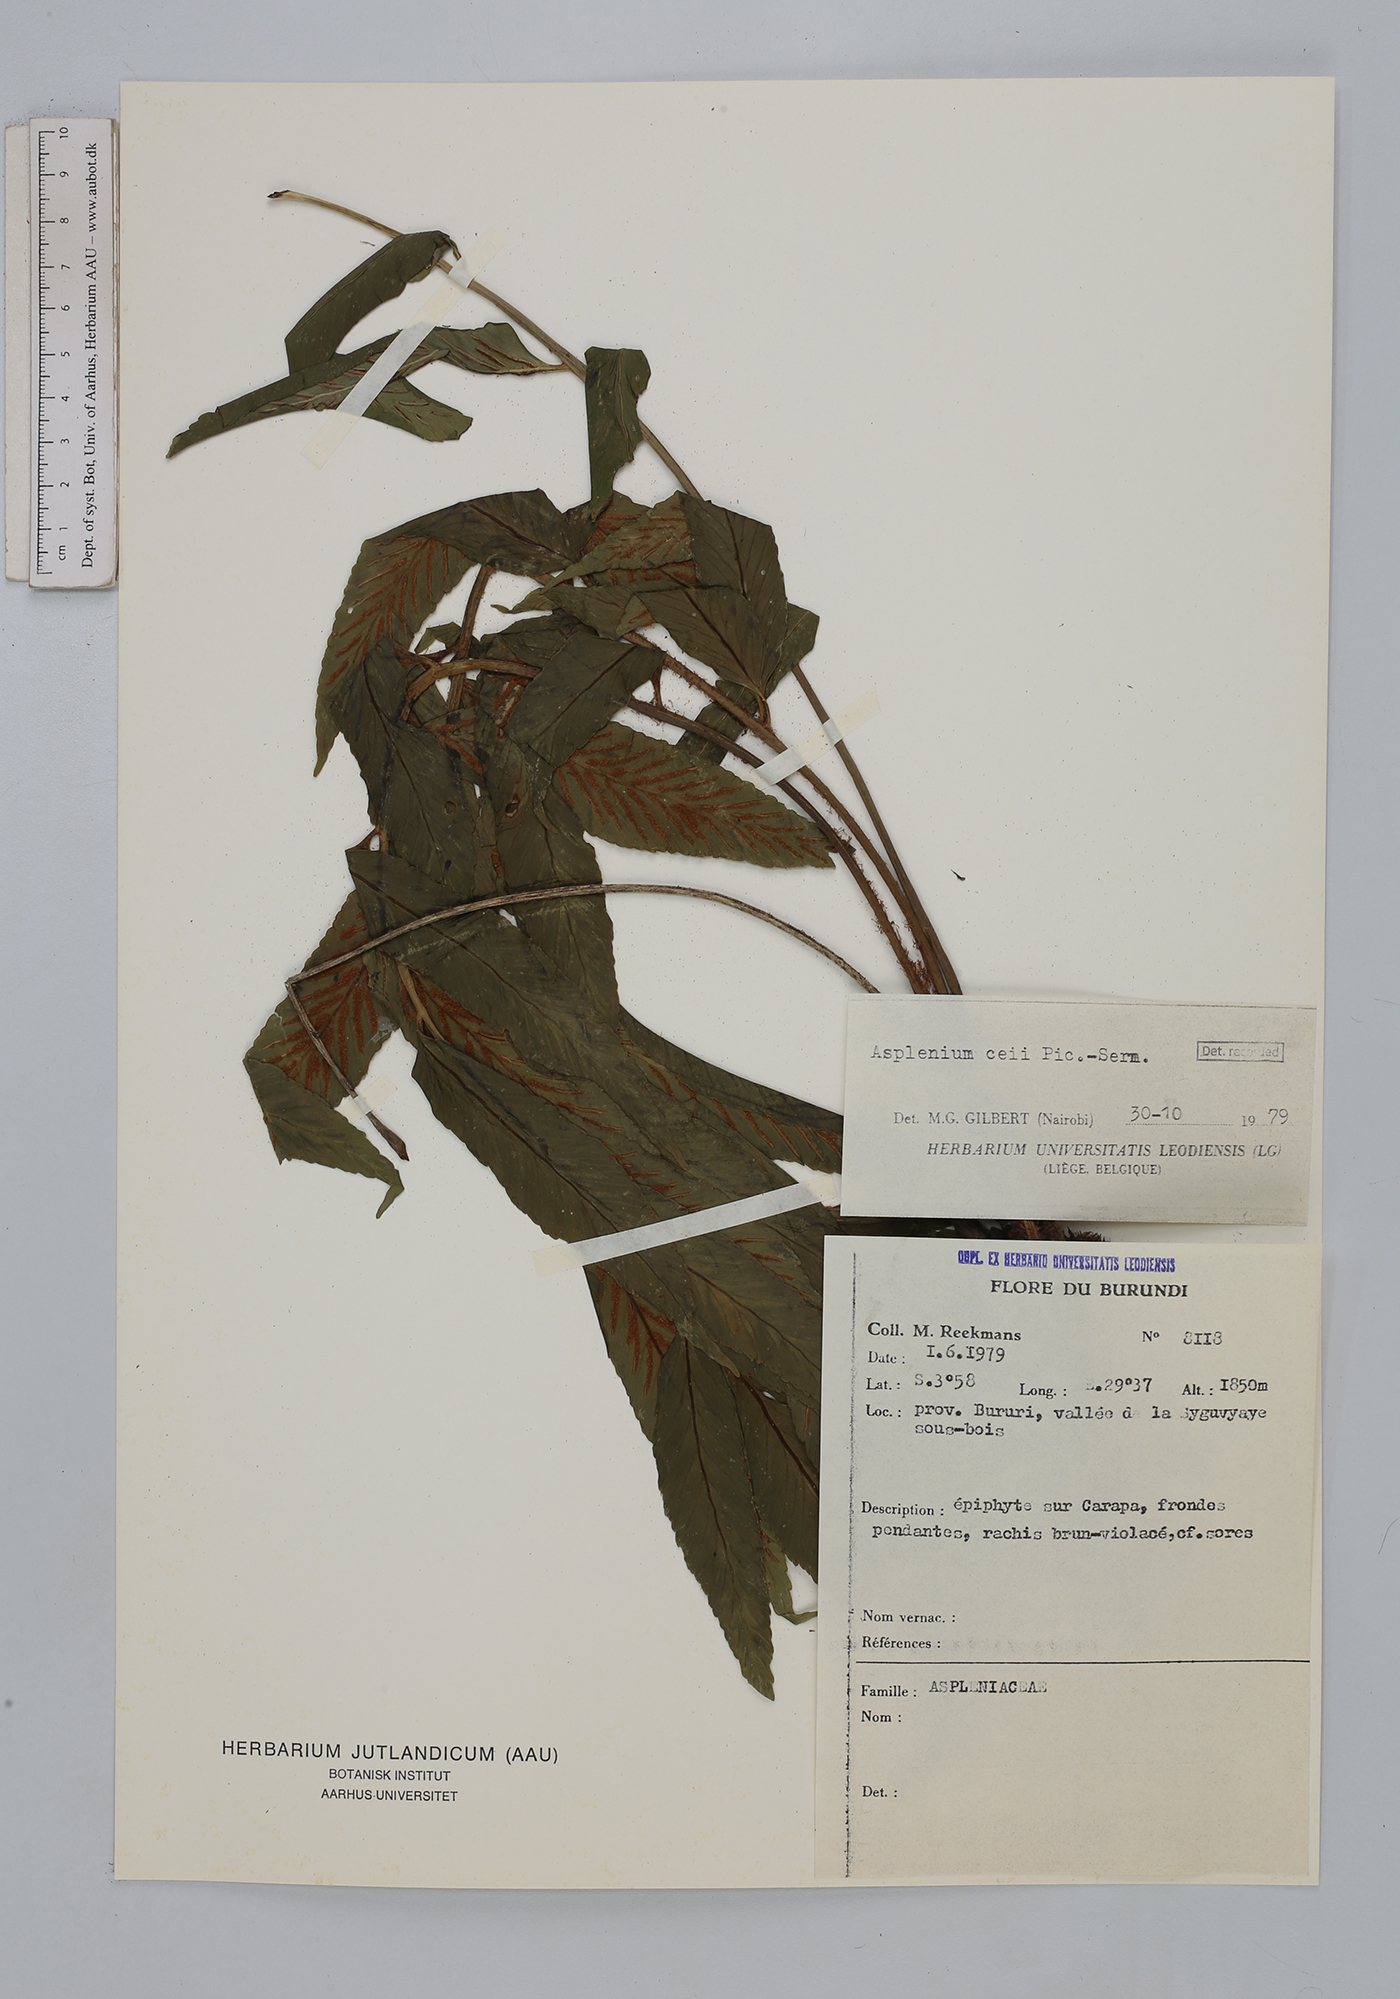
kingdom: Plantae
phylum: Tracheophyta
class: Polypodiopsida
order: Polypodiales
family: Aspleniaceae
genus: Asplenium
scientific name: Asplenium ceii
